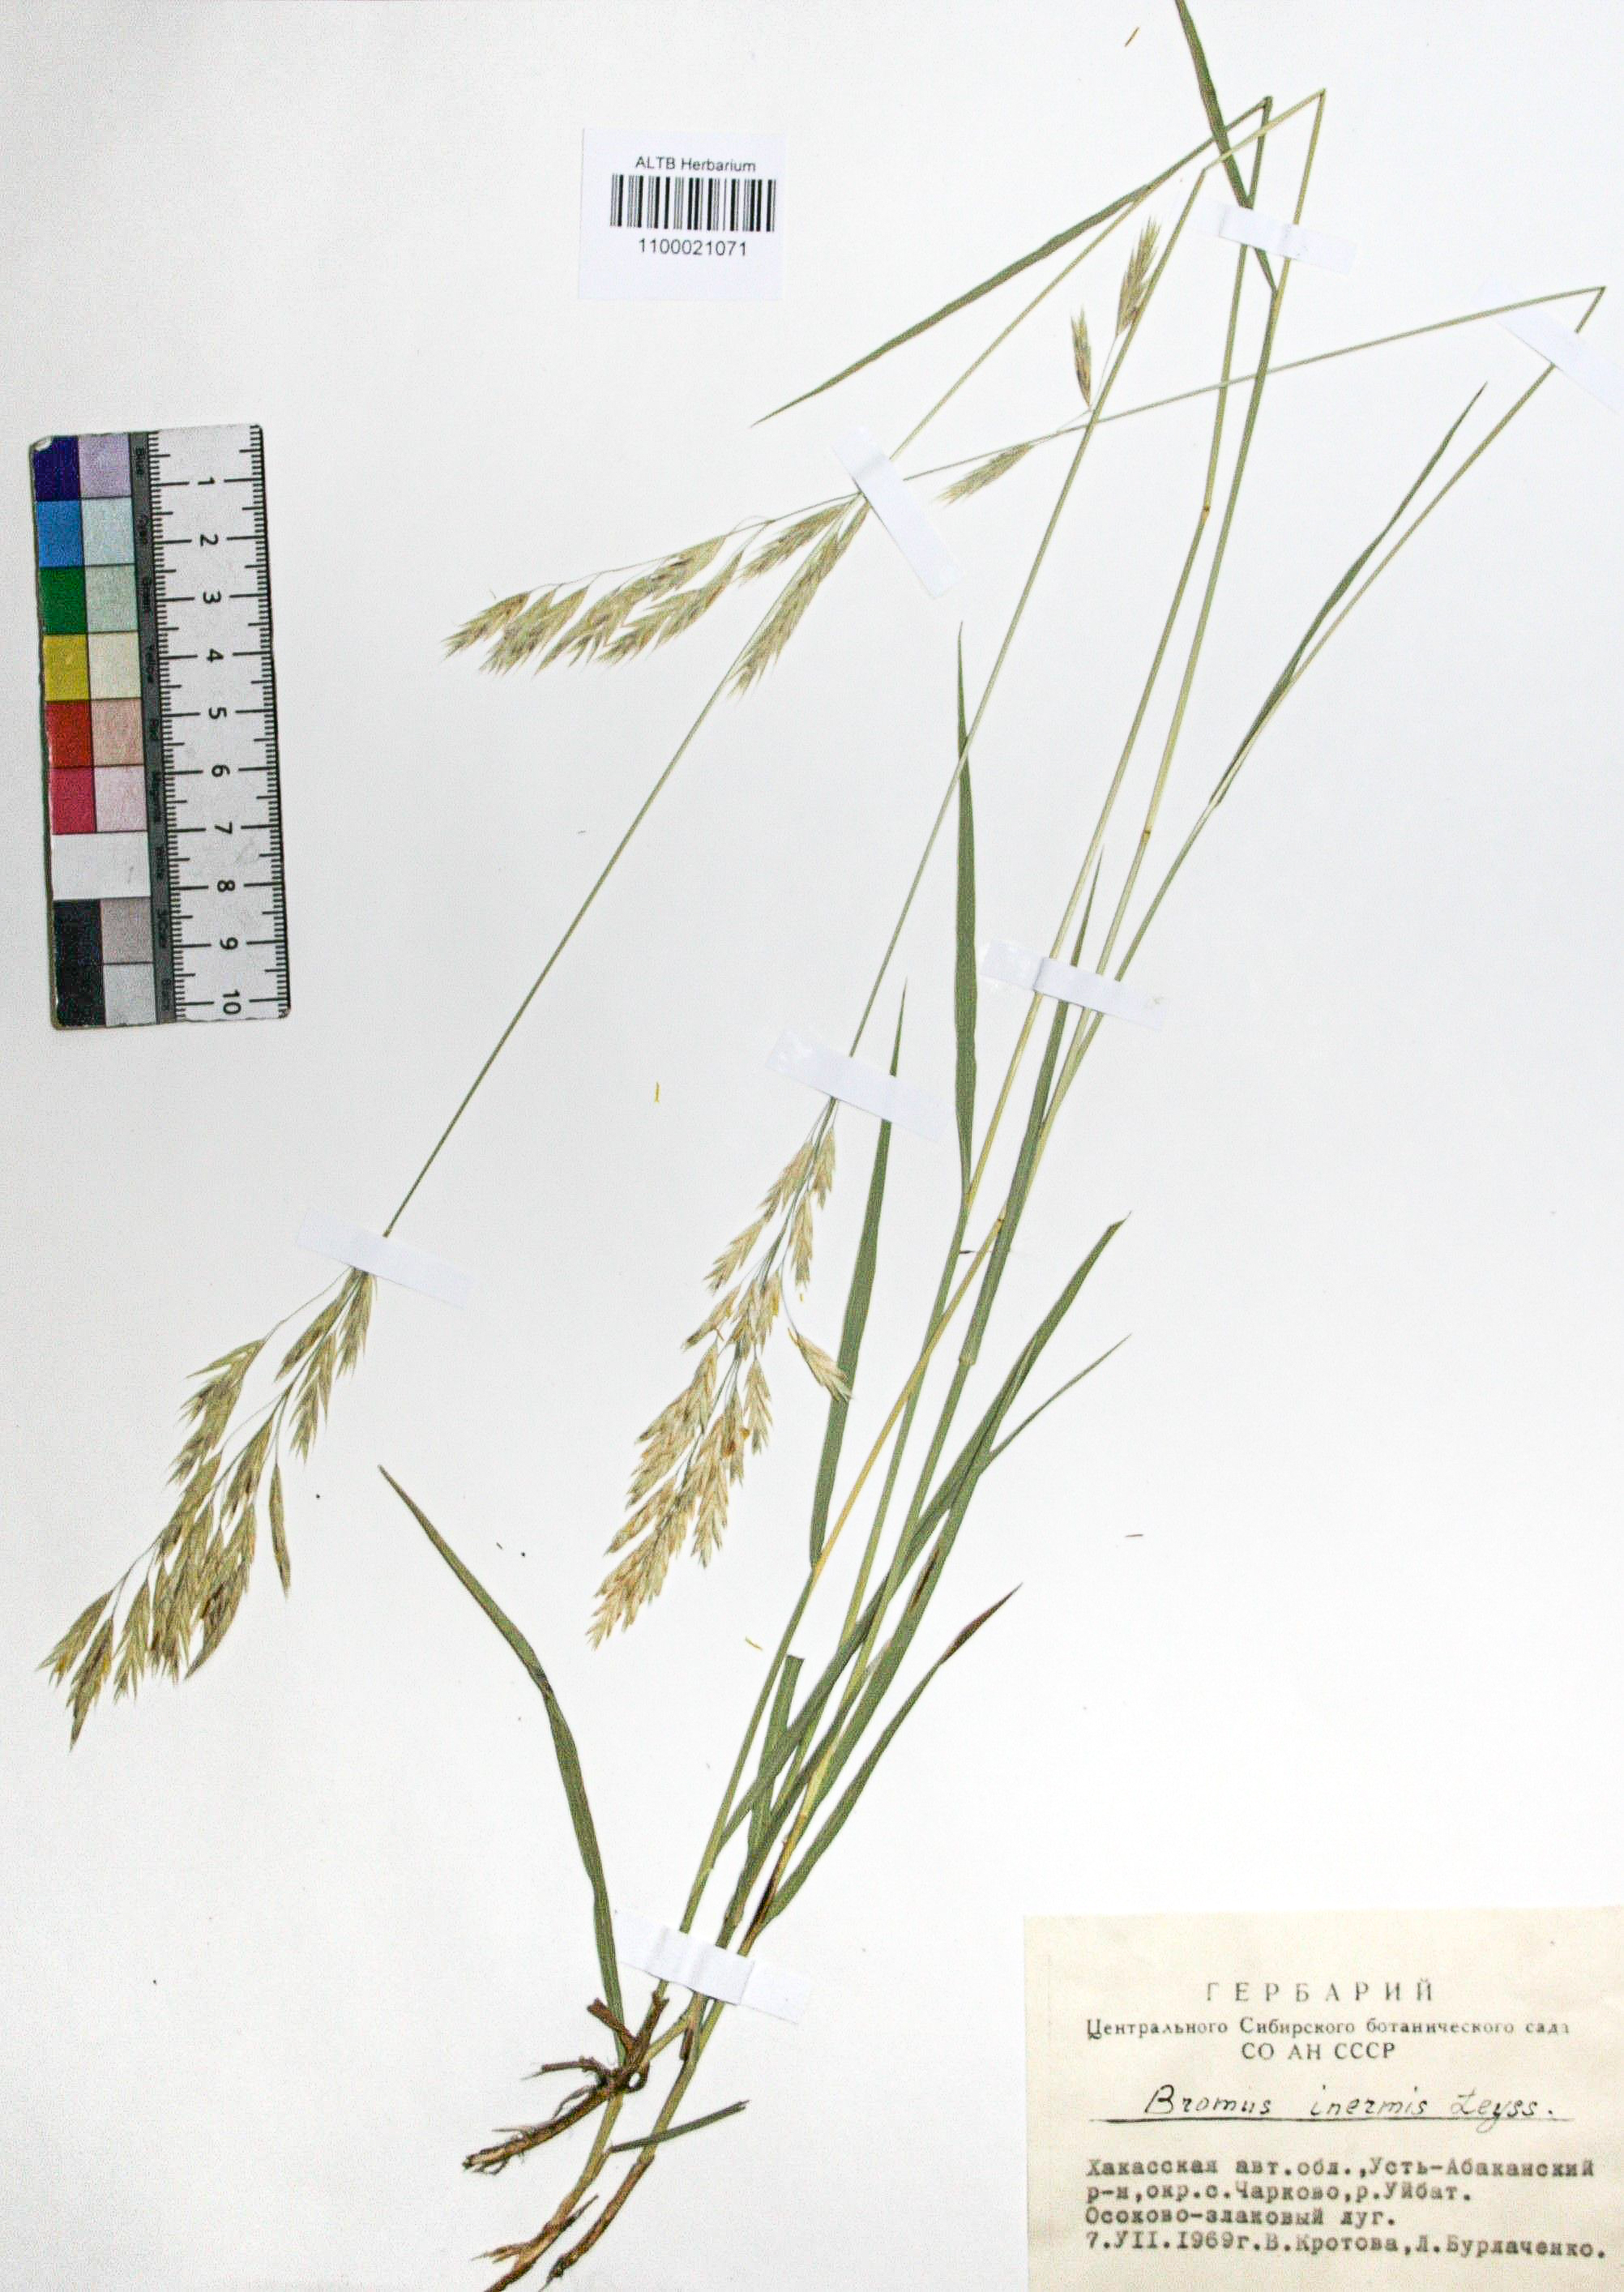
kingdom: Plantae
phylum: Tracheophyta
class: Liliopsida
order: Poales
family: Poaceae
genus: Bromus
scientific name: Bromus inermis
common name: Smooth brome
